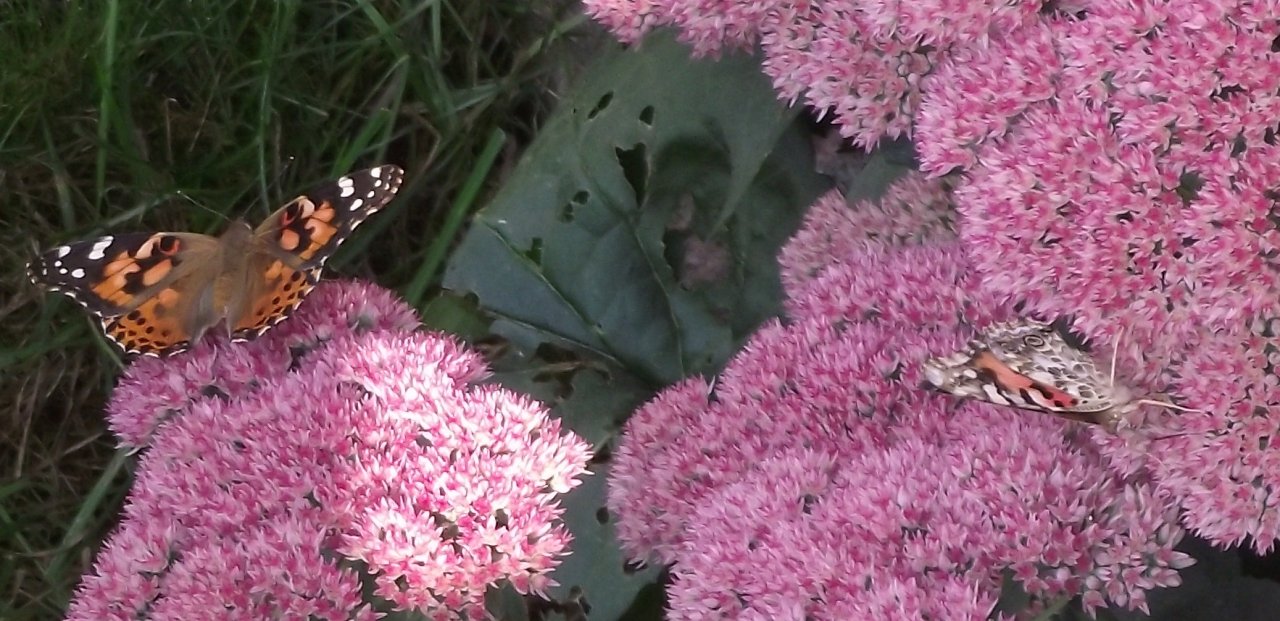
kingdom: Animalia
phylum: Arthropoda
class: Insecta
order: Lepidoptera
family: Nymphalidae
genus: Vanessa
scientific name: Vanessa cardui
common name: Painted Lady
